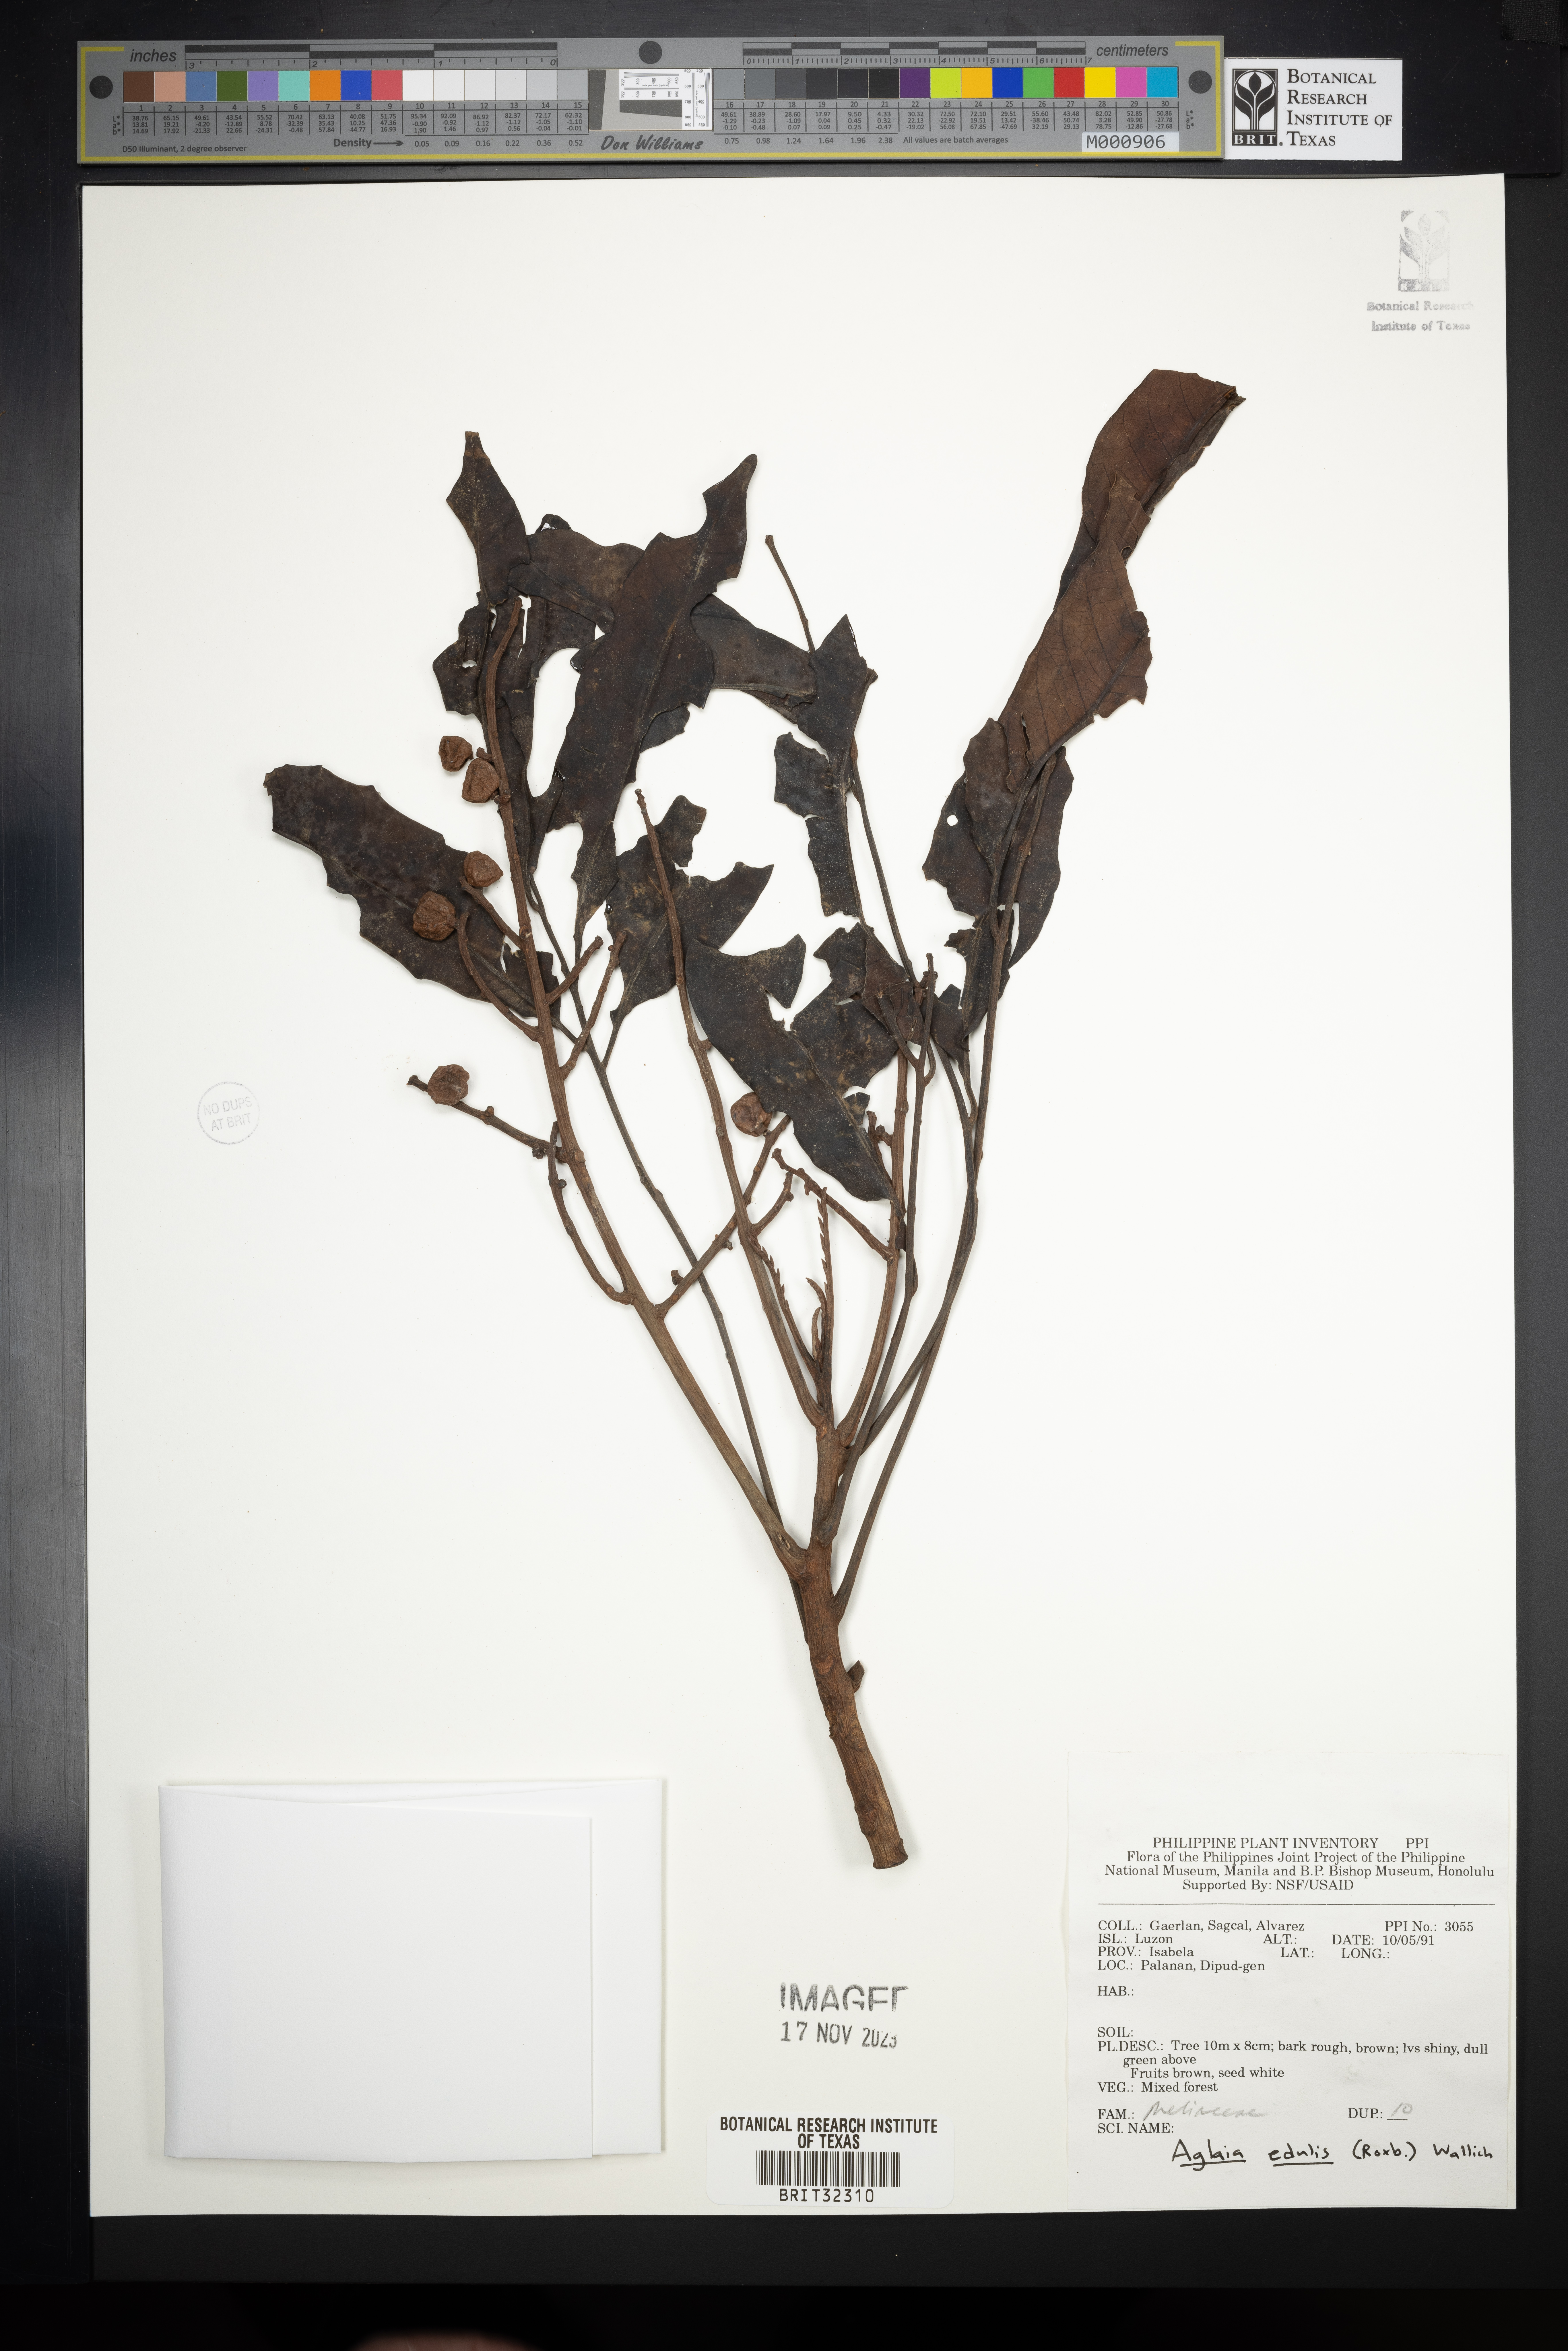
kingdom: Plantae
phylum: Tracheophyta
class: Magnoliopsida
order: Sapindales
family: Meliaceae
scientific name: Meliaceae
